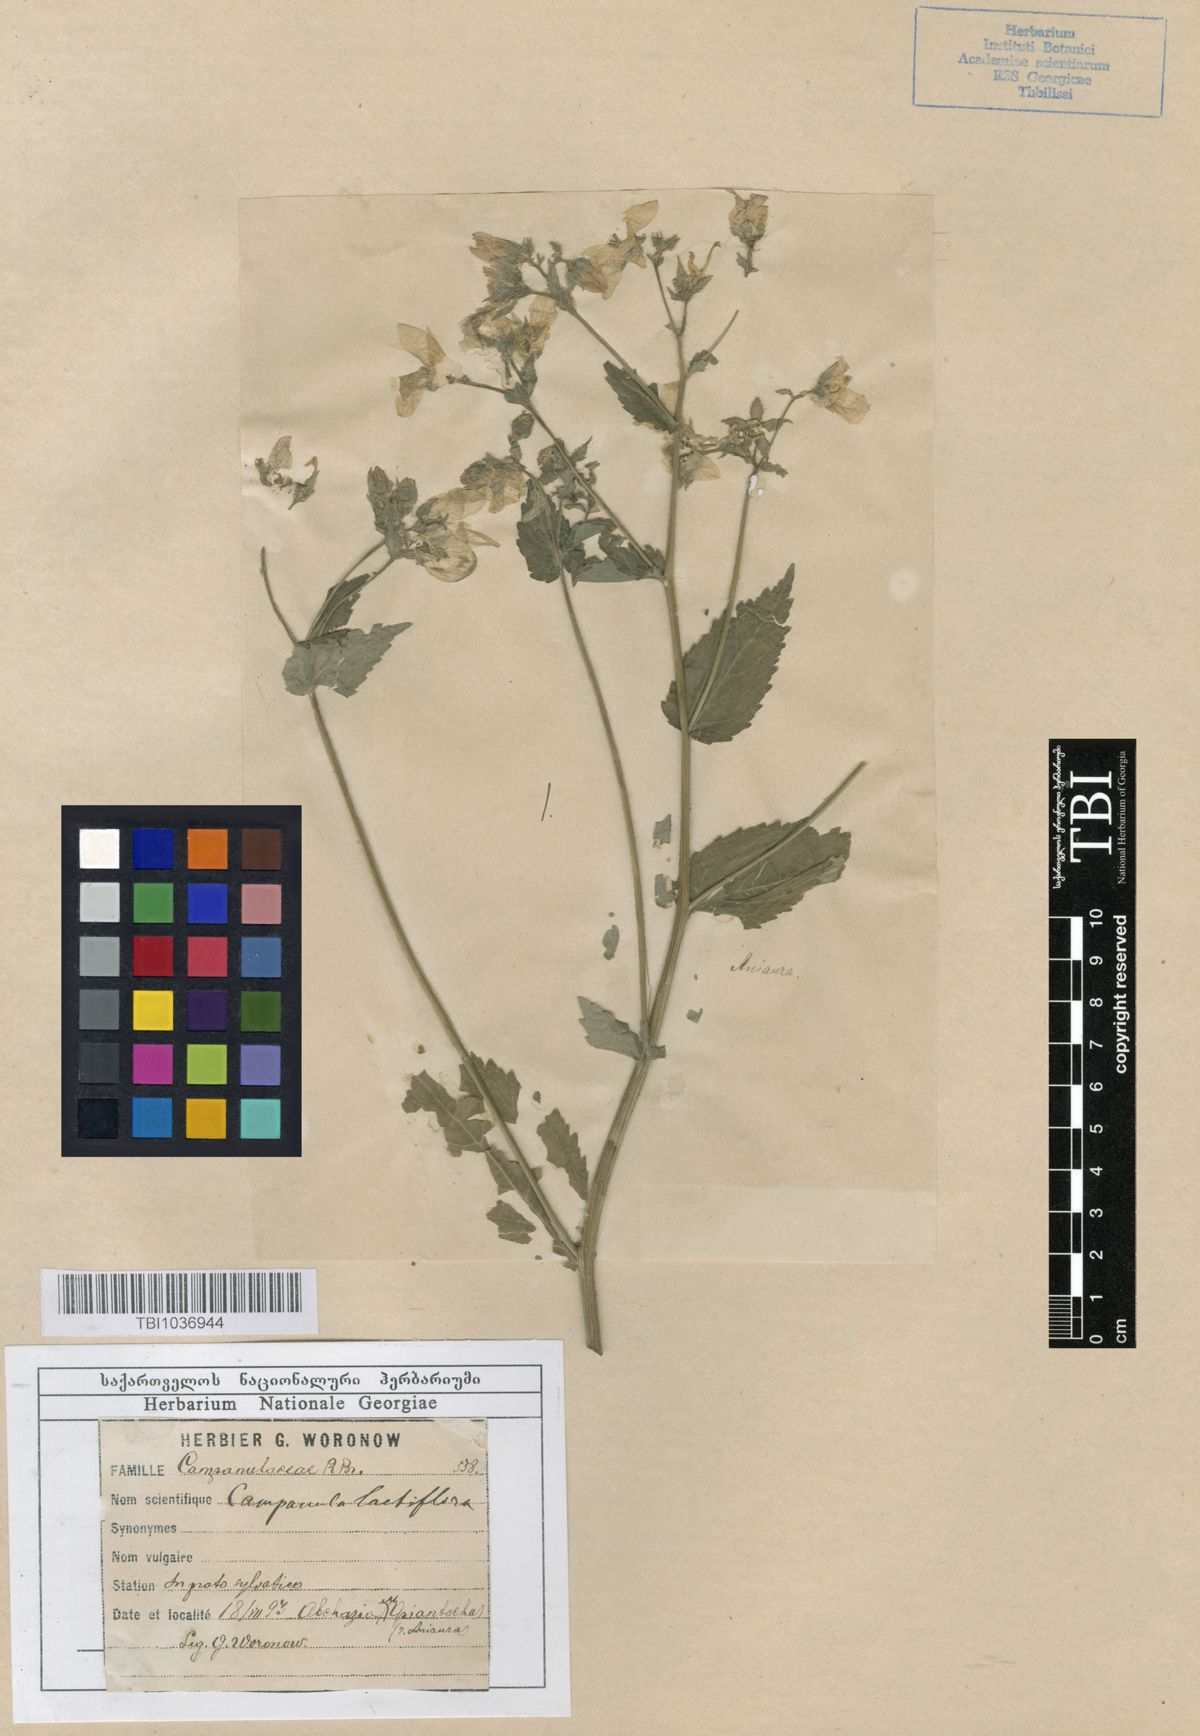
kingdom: Plantae
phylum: Tracheophyta
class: Magnoliopsida
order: Asterales
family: Campanulaceae
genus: Campanula
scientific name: Campanula lactiflora
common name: Milky bellflower
